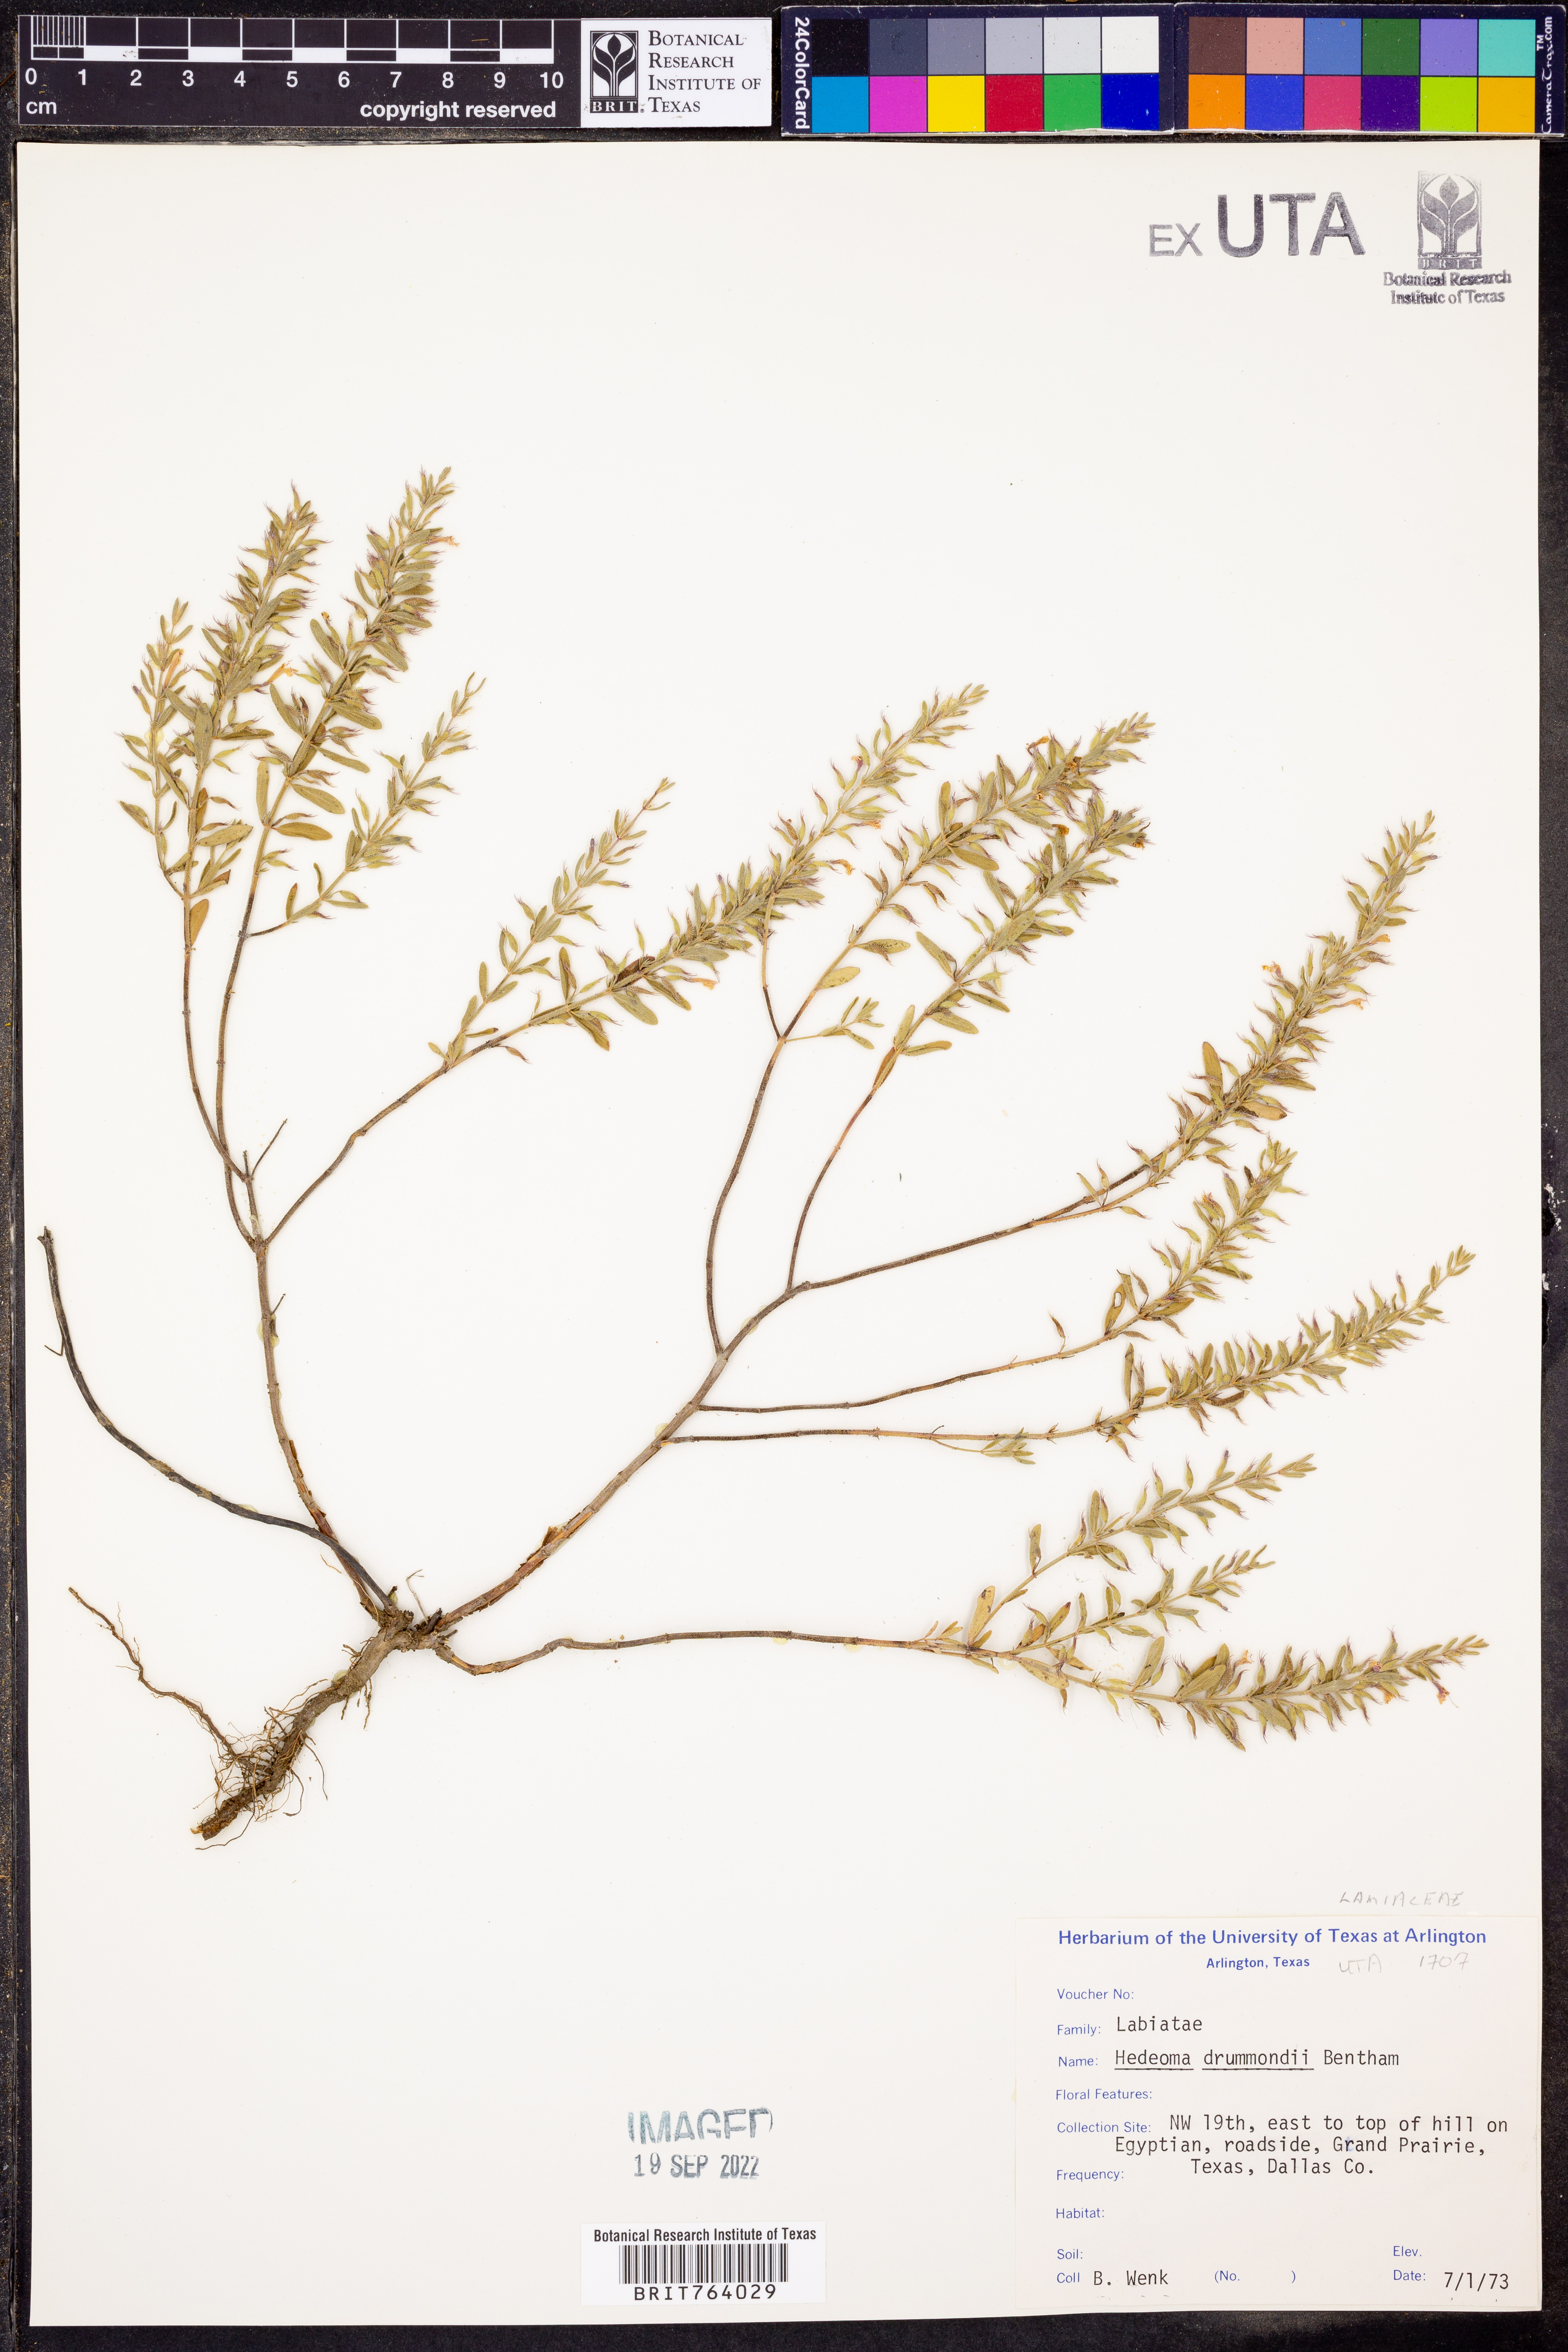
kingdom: Plantae
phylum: Tracheophyta
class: Magnoliopsida
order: Lamiales
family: Lamiaceae
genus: Hedeoma
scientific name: Hedeoma drummondii
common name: New mexico pennyroyal
